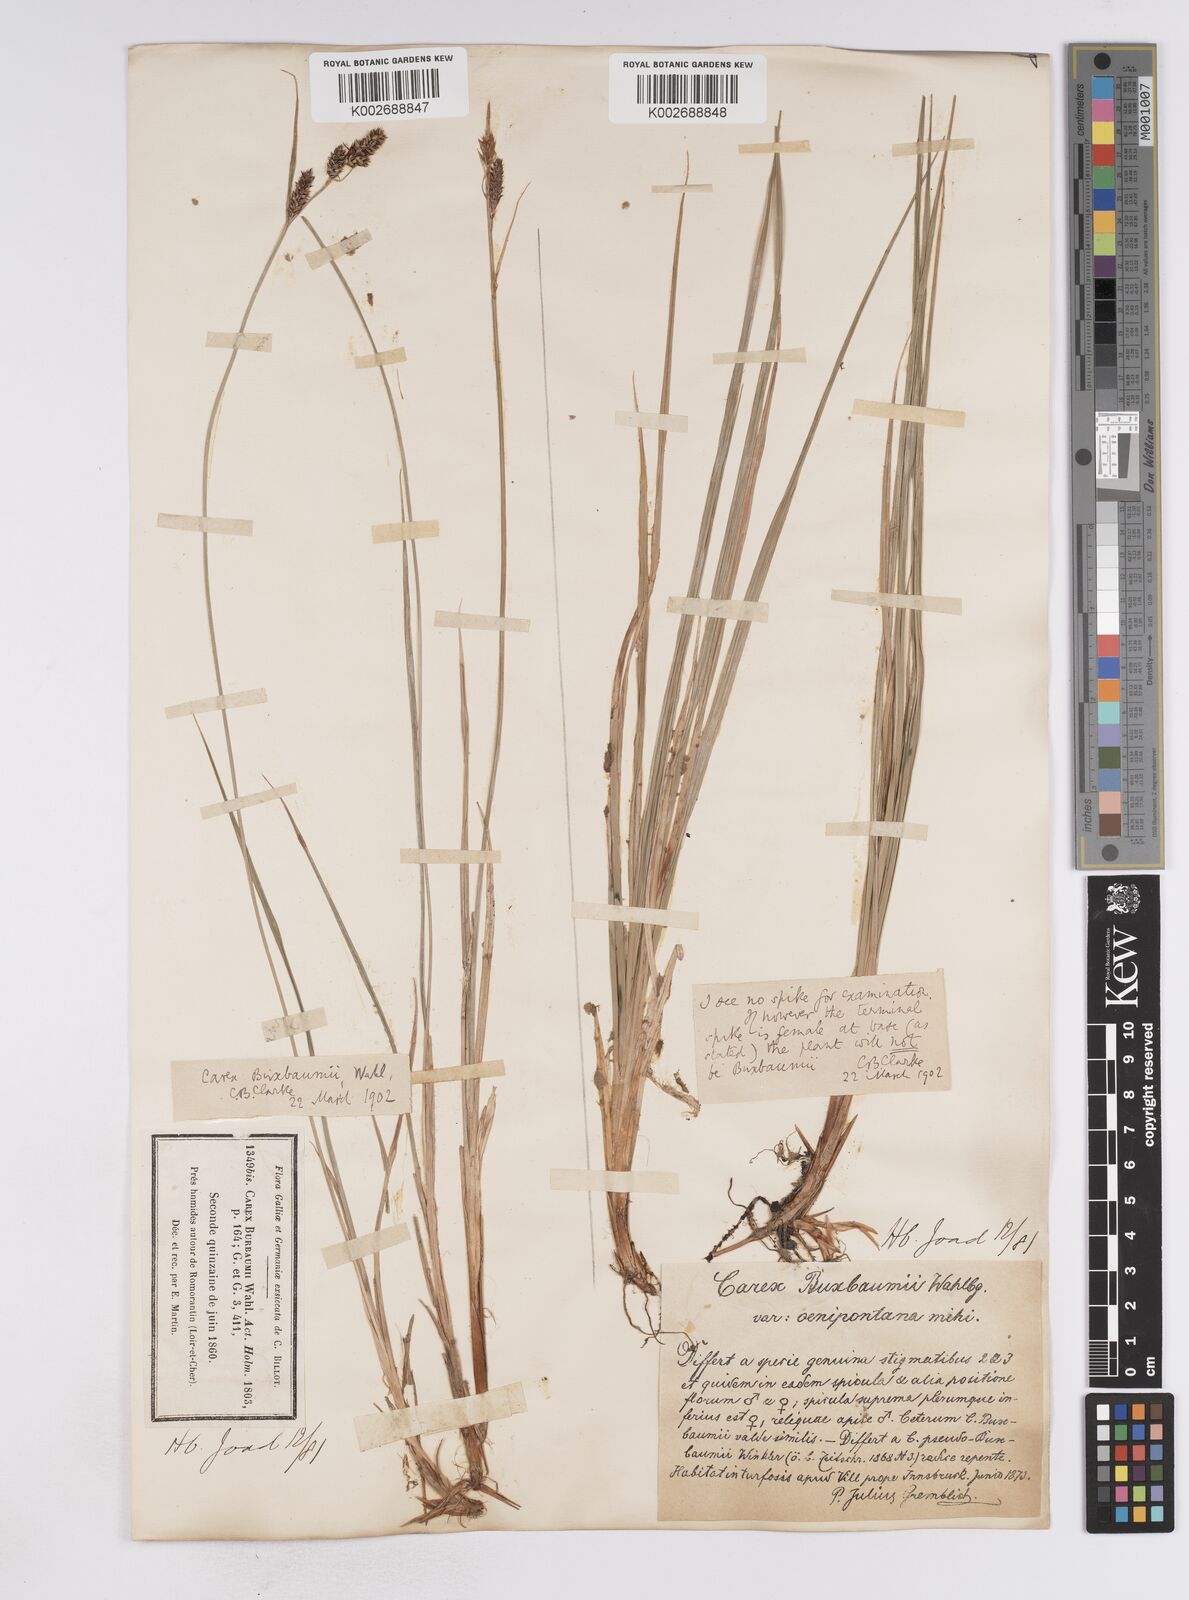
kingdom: Plantae
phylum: Tracheophyta
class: Liliopsida
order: Poales
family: Cyperaceae
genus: Carex
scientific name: Carex buxbaumii
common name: Club sedge
